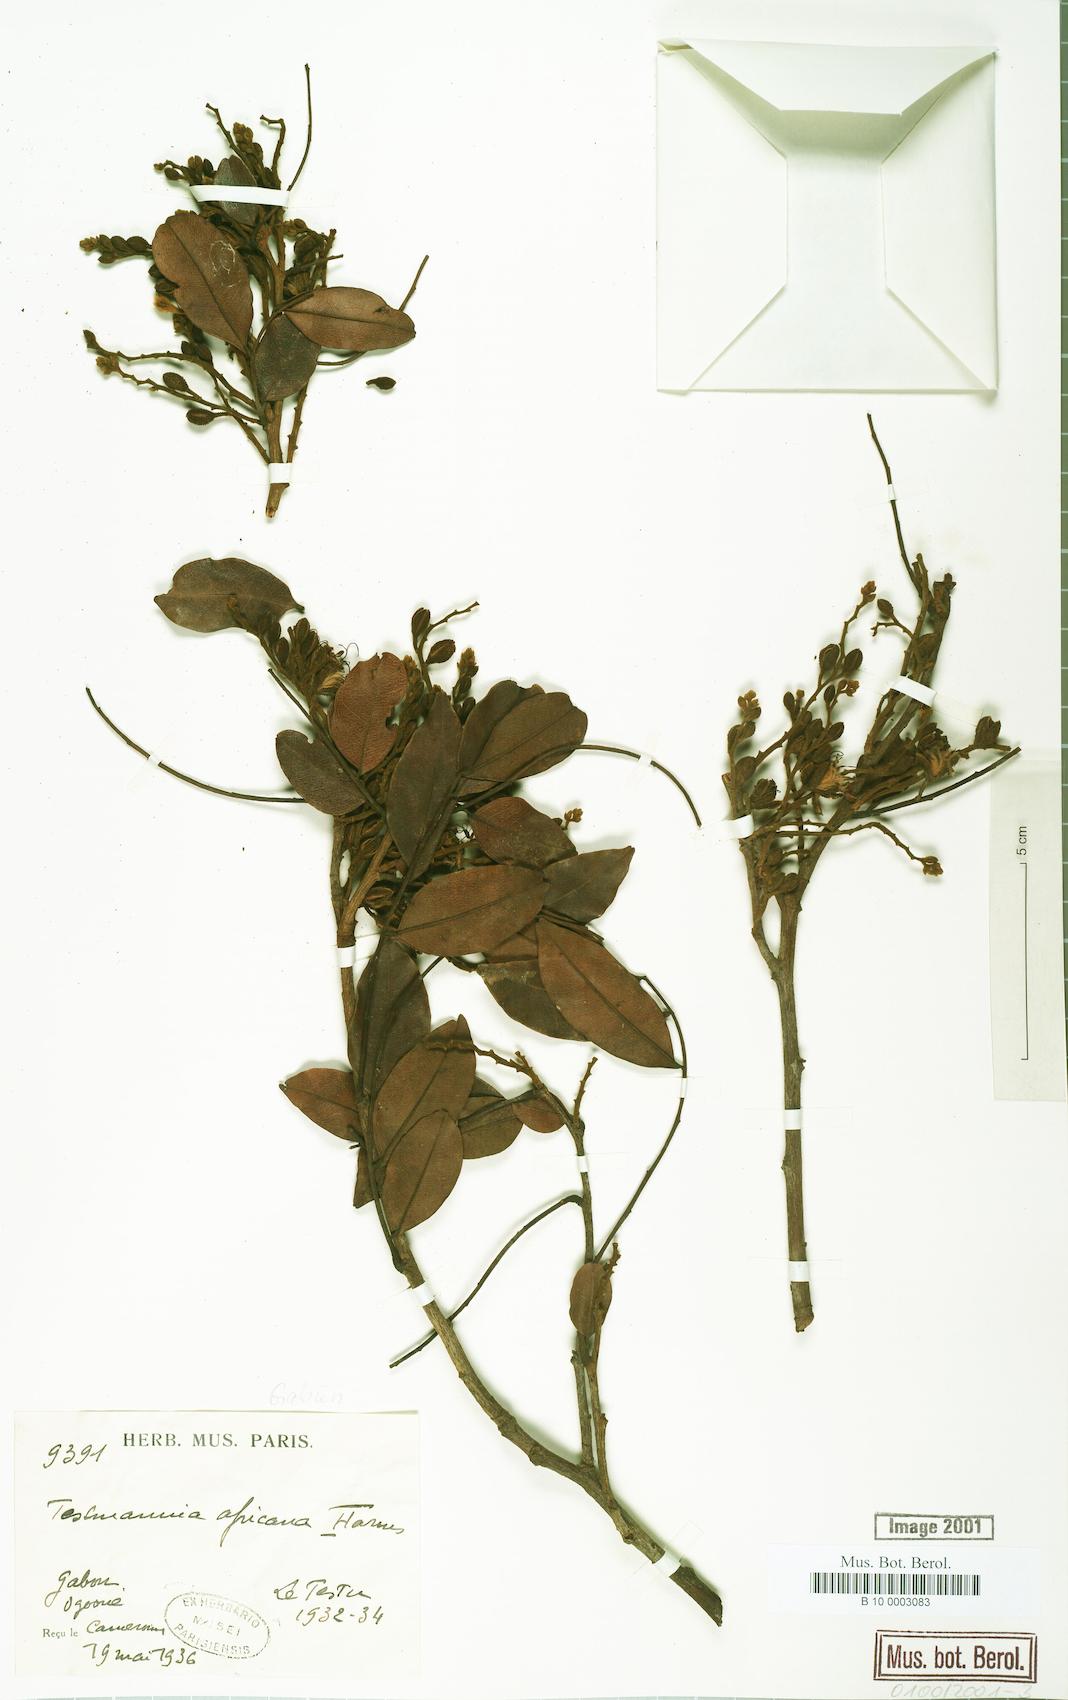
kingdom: Plantae
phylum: Tracheophyta
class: Magnoliopsida
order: Fabales
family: Fabaceae
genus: Tessmannia
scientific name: Tessmannia africana
